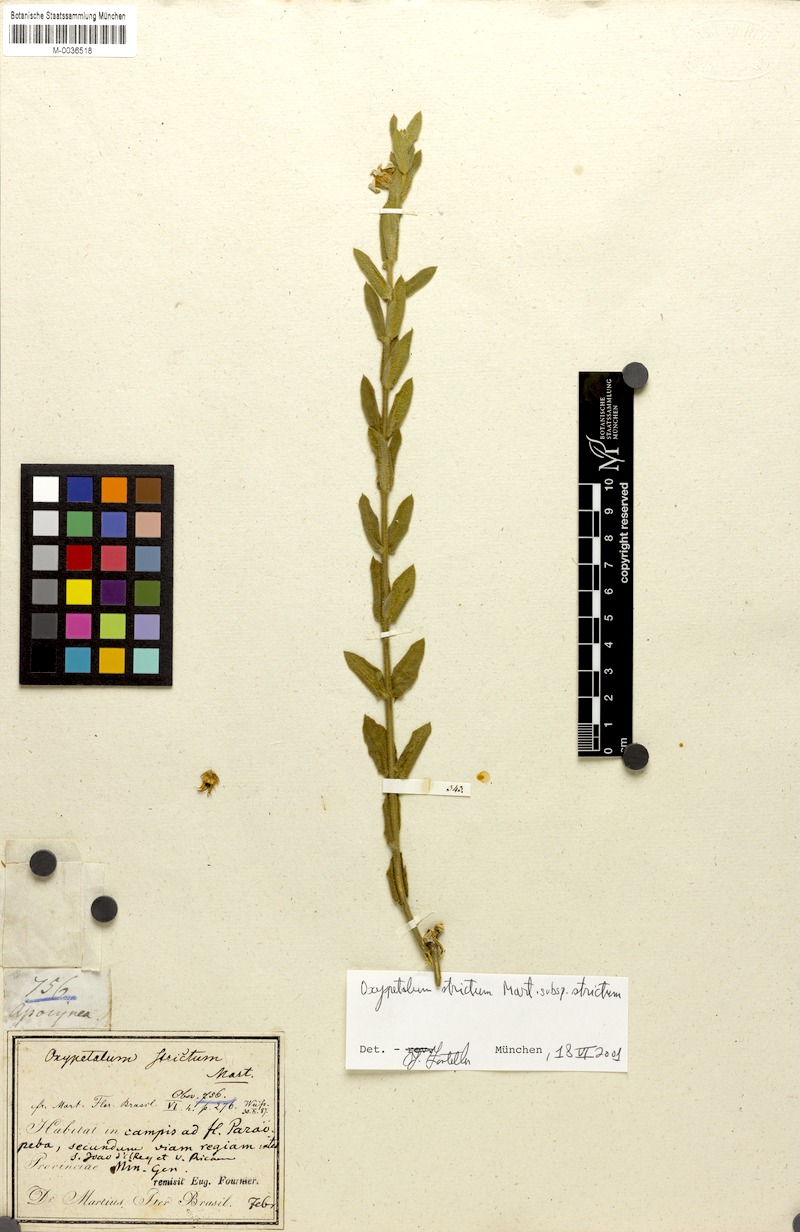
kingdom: Plantae
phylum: Tracheophyta
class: Magnoliopsida
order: Gentianales
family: Apocynaceae
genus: Oxypetalum
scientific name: Oxypetalum strictum
